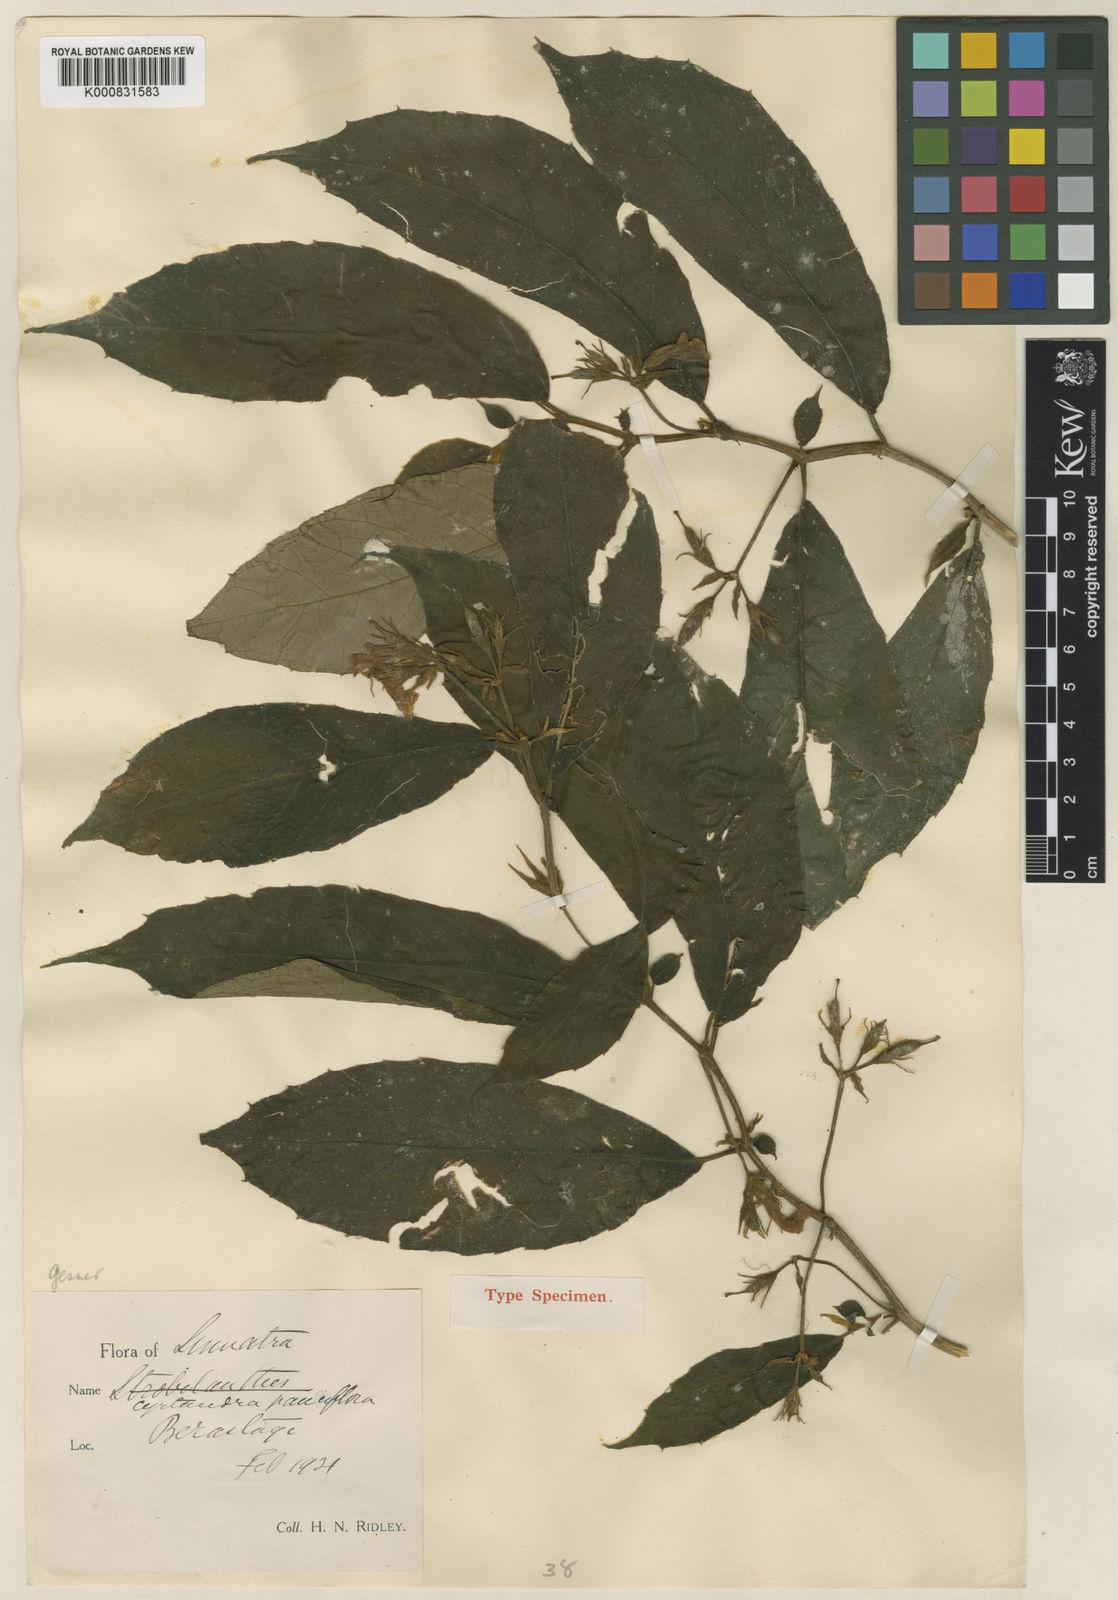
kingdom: Plantae
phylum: Tracheophyta
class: Magnoliopsida
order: Lamiales
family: Gesneriaceae
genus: Cyrtandra
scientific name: Cyrtandra pauciflora
